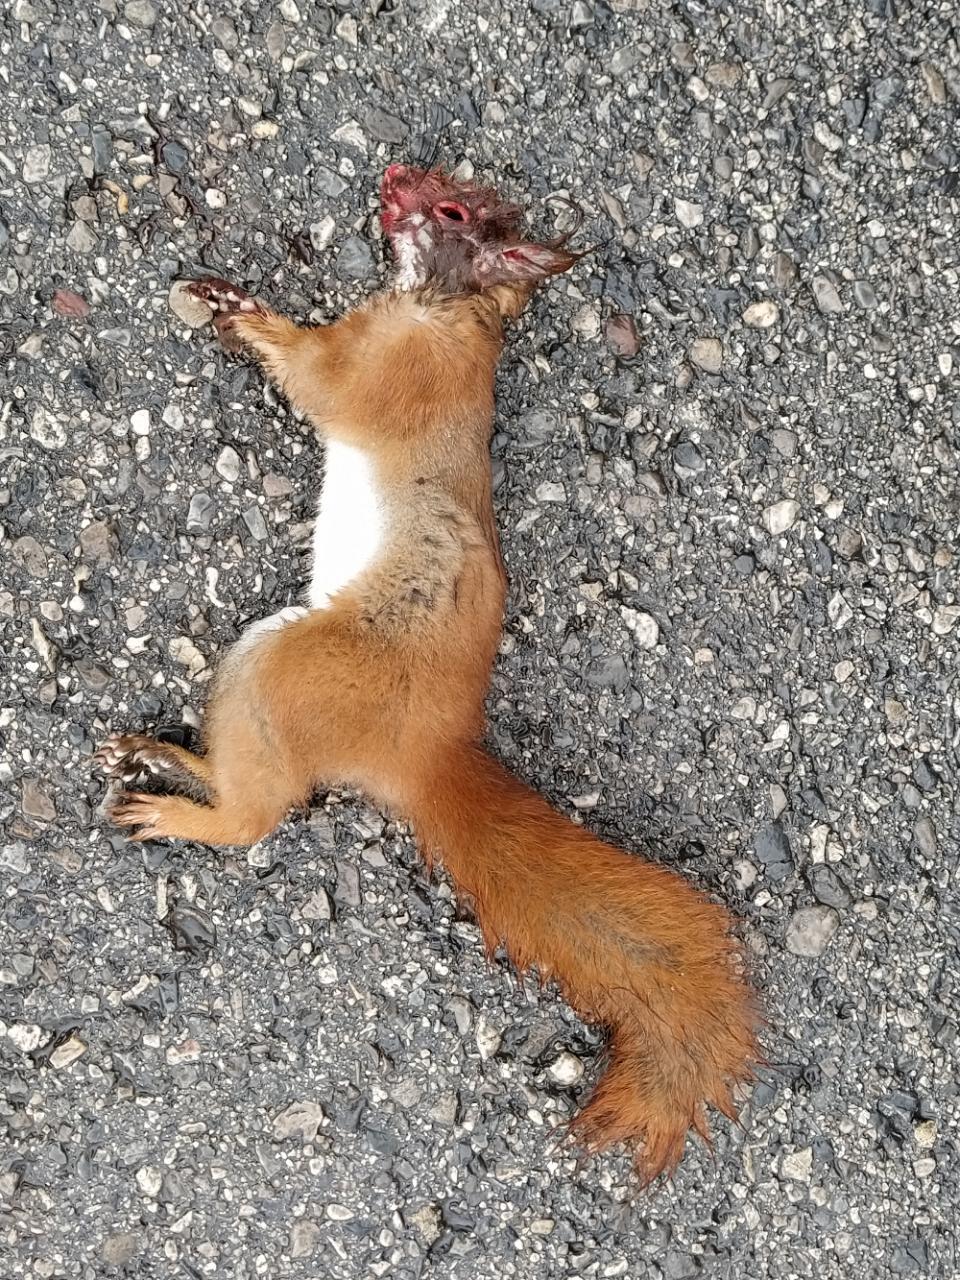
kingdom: Animalia
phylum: Chordata
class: Mammalia
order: Rodentia
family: Sciuridae
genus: Sciurus
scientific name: Sciurus vulgaris
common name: Eurasian red squirrel
